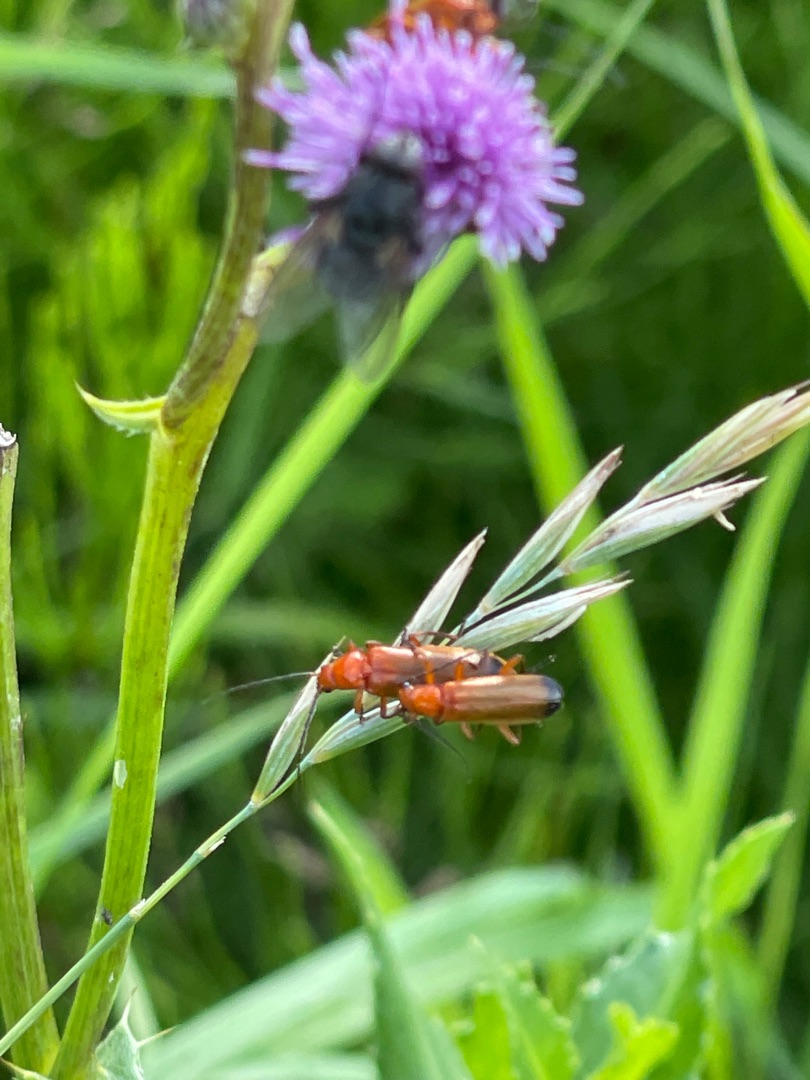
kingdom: Animalia
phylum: Arthropoda
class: Insecta
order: Coleoptera
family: Cantharidae
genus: Rhagonycha
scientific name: Rhagonycha fulva
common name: Præstebille
